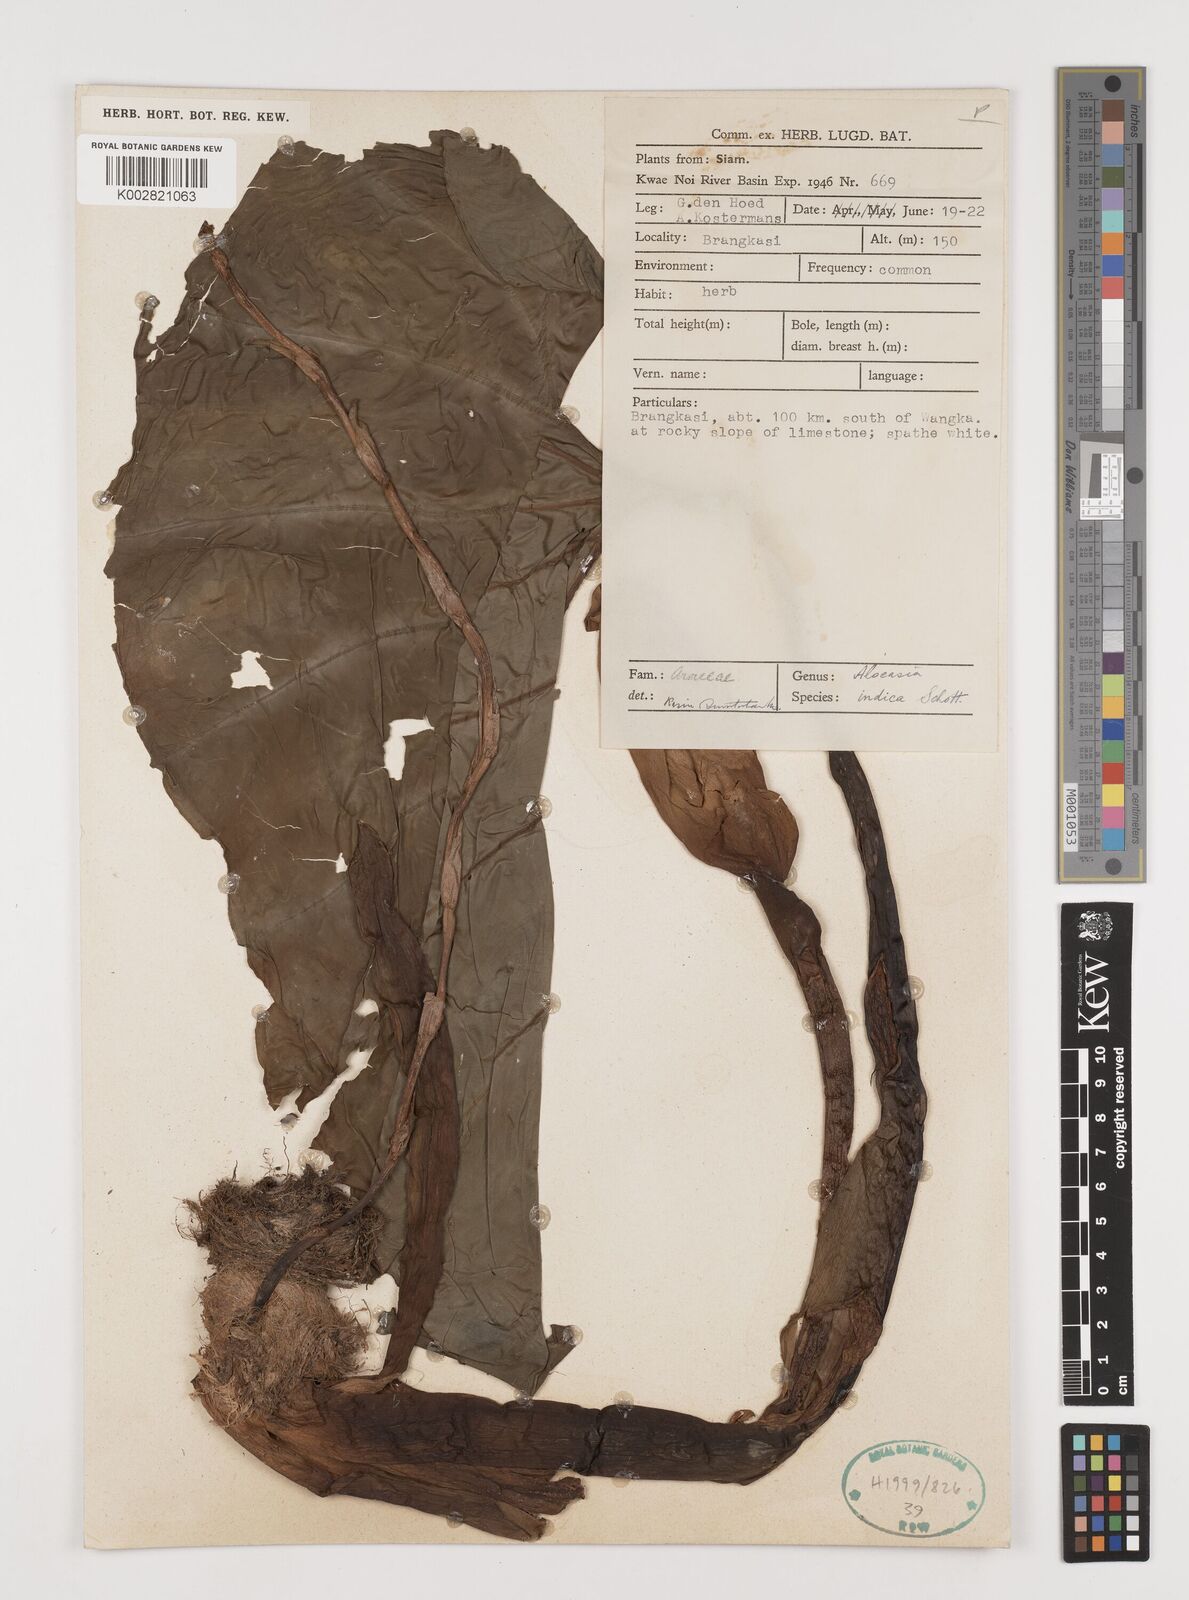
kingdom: Plantae
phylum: Tracheophyta
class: Liliopsida
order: Alismatales
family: Araceae
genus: Alocasia
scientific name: Alocasia macrorrhizos
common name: Giant taro
